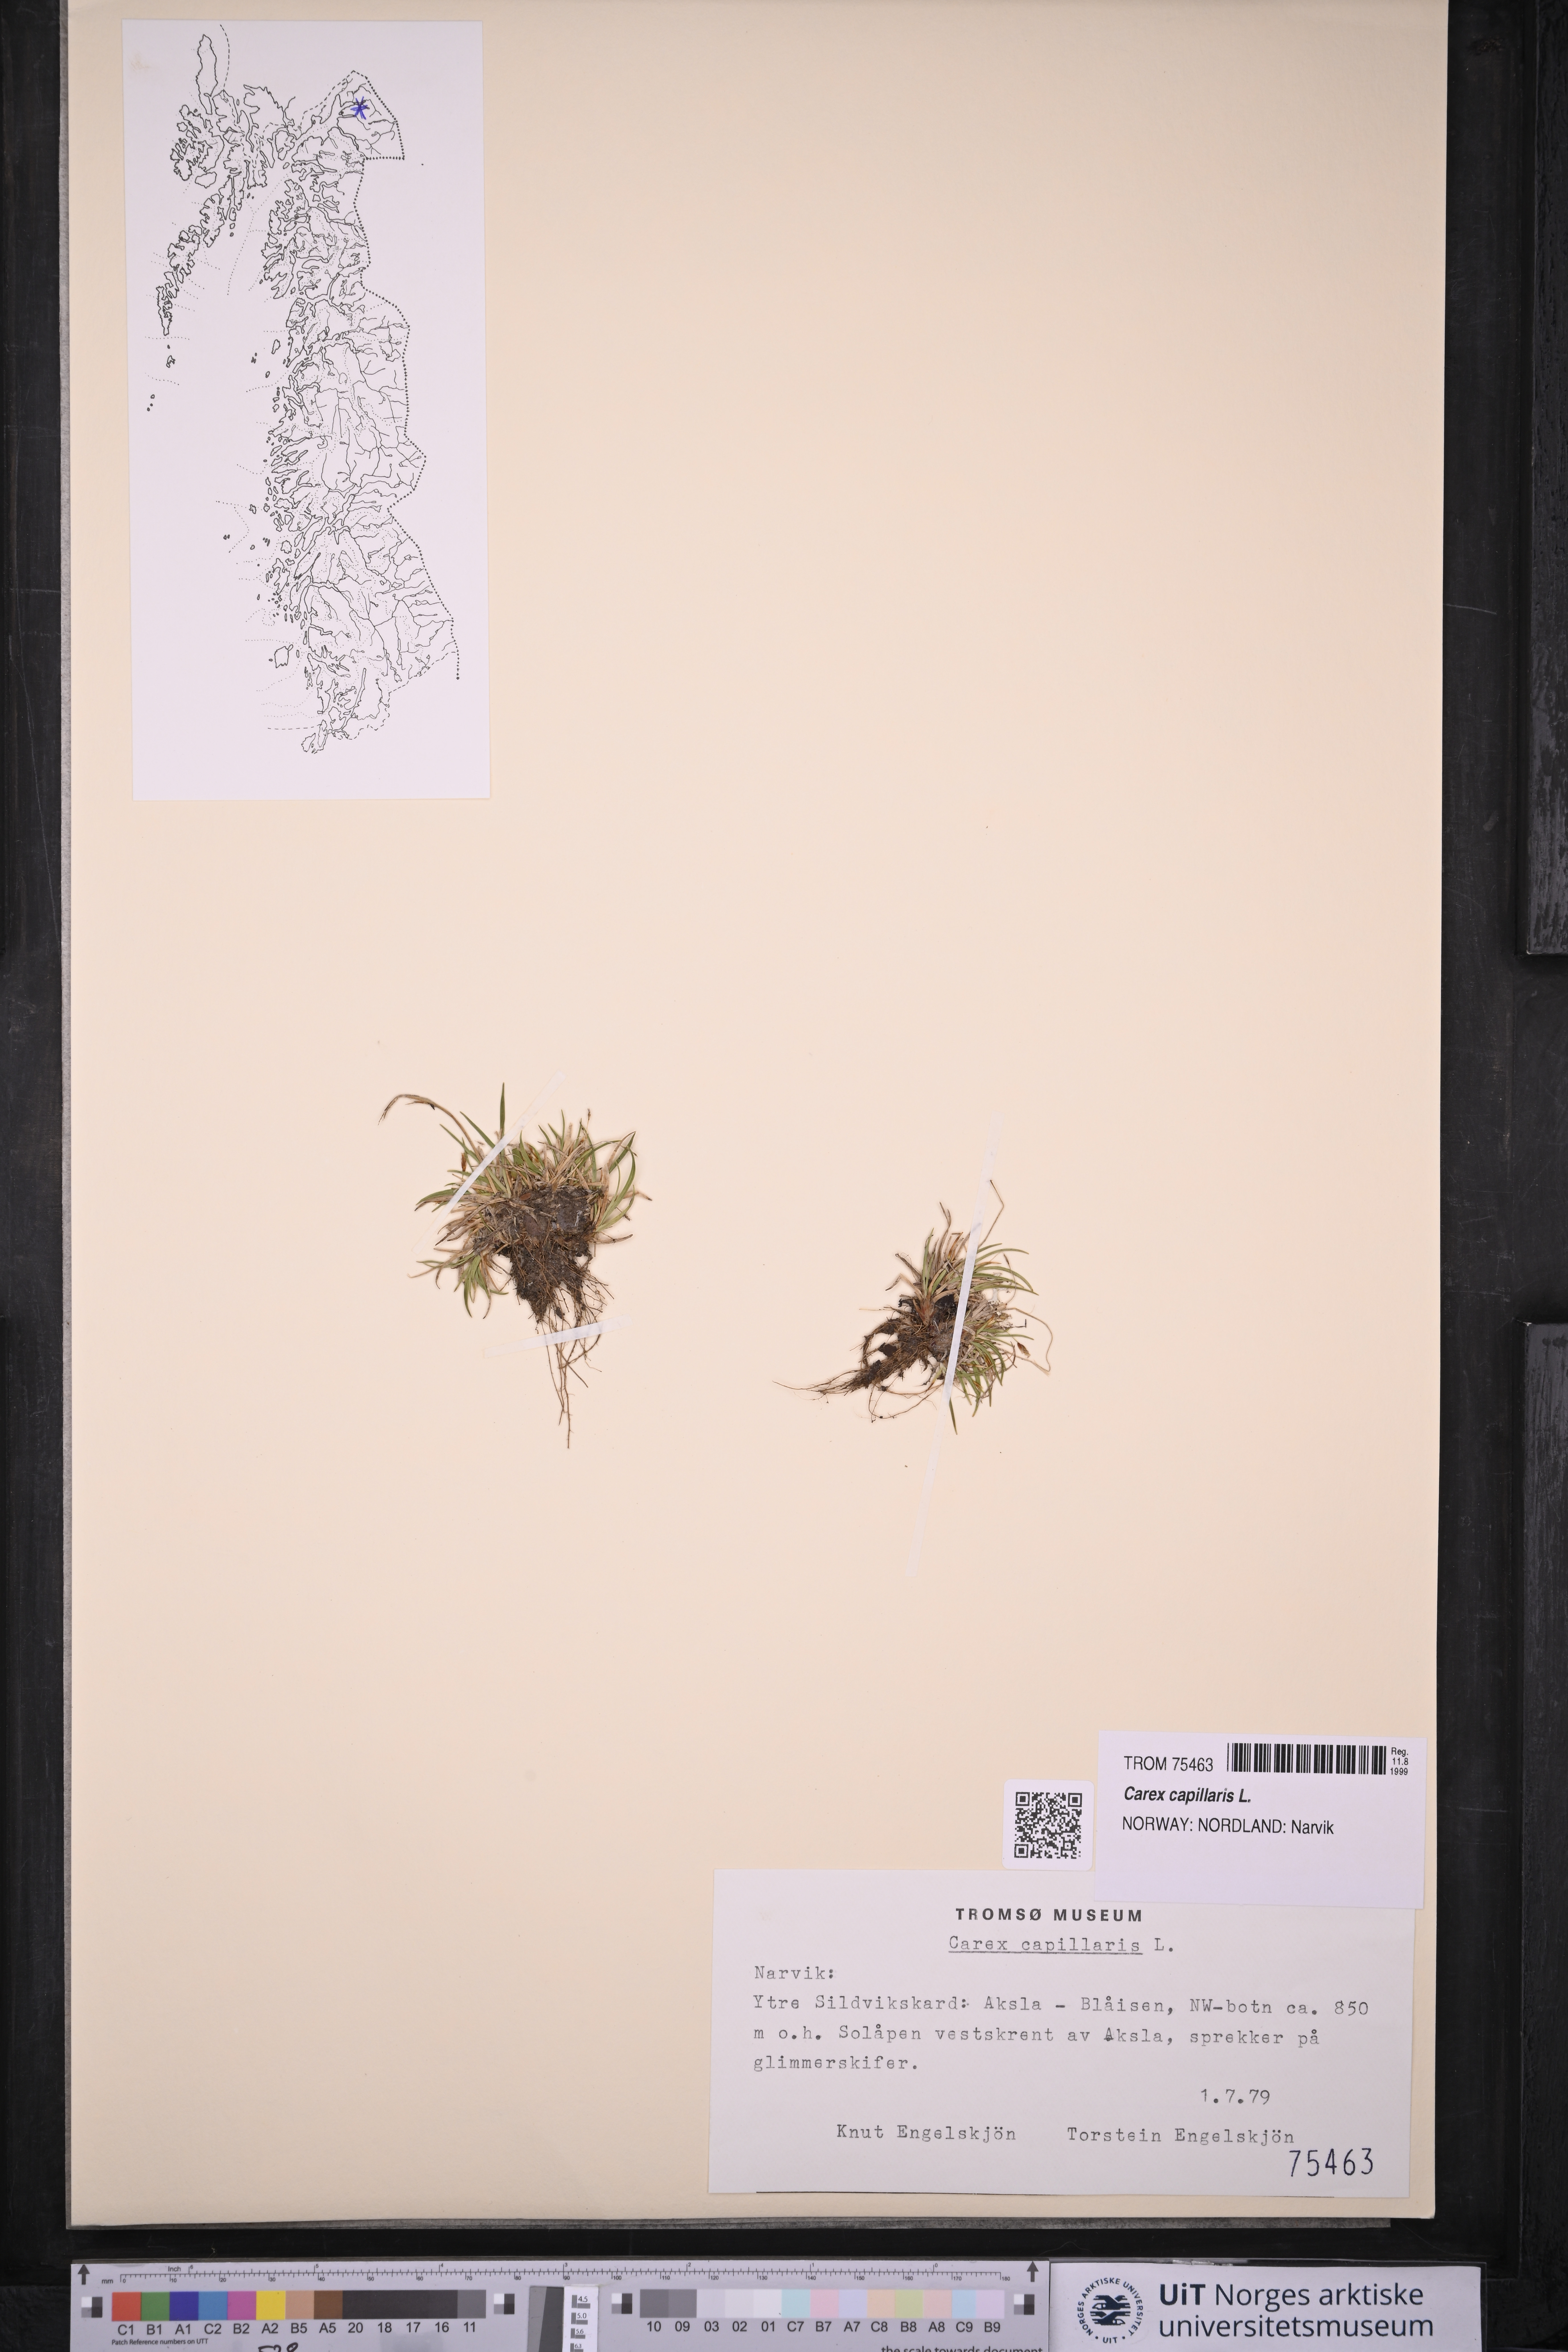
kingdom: Plantae
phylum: Tracheophyta
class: Liliopsida
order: Poales
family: Cyperaceae
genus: Carex
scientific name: Carex capillaris
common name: Hair sedge
